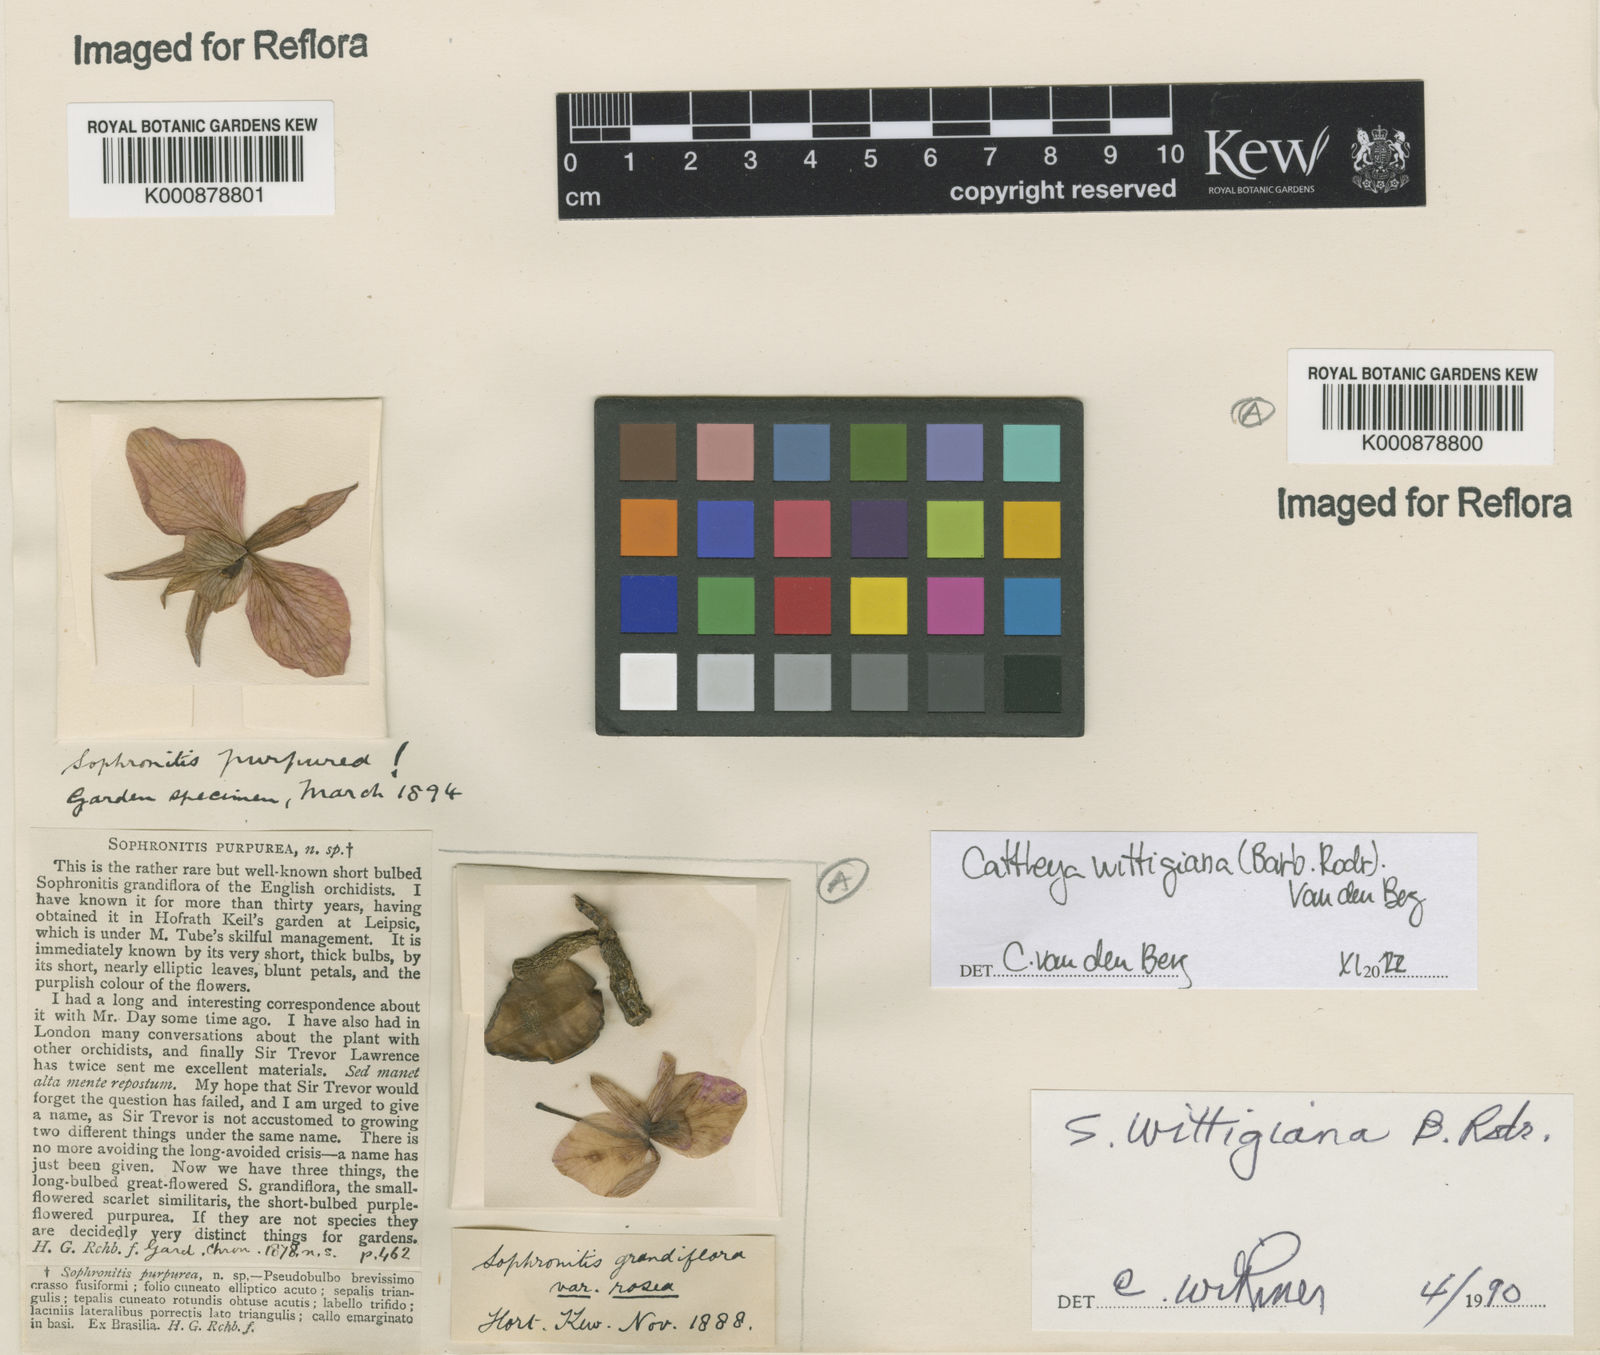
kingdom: Plantae
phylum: Tracheophyta
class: Liliopsida
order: Asparagales
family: Orchidaceae
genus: Cattleya
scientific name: Cattleya wittigiana
